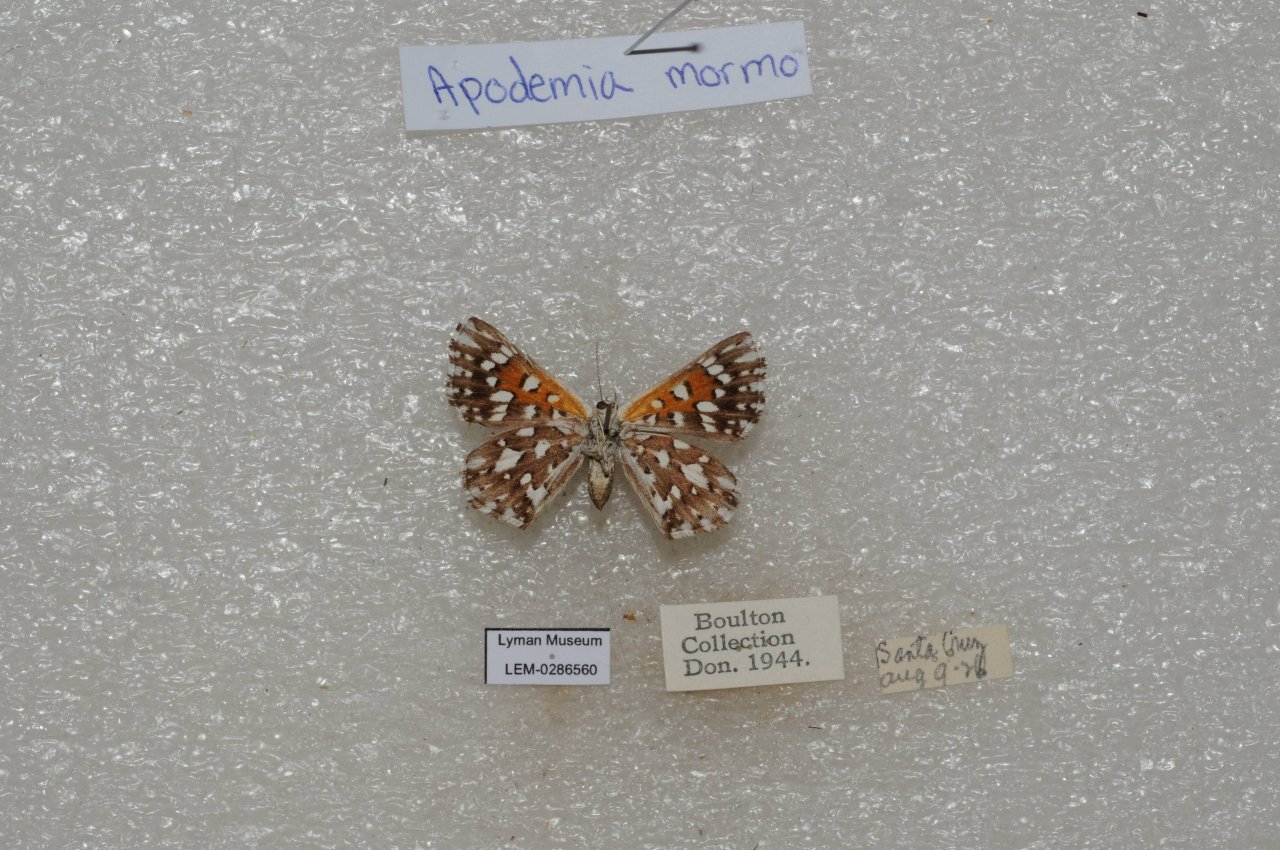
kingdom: Animalia
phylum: Arthropoda
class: Insecta
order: Lepidoptera
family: Riodinidae
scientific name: Riodinidae
